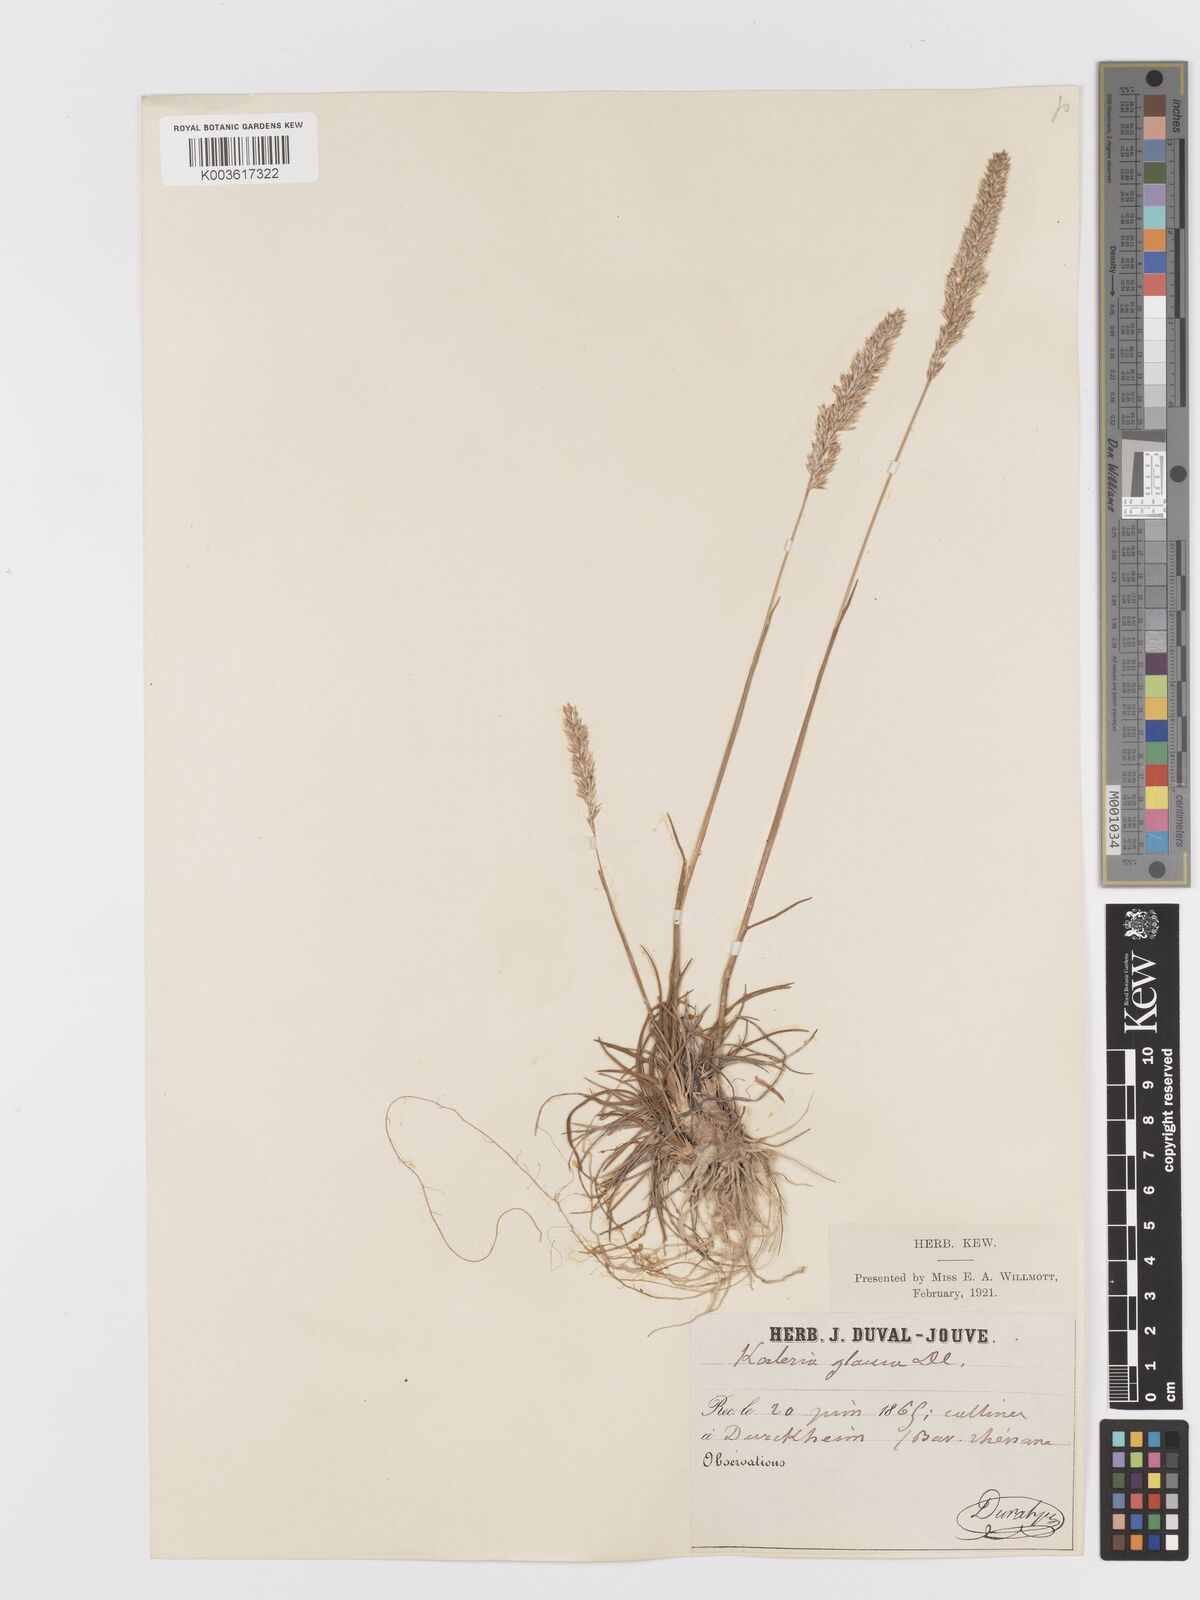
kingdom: Plantae
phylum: Tracheophyta
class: Liliopsida
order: Poales
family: Poaceae
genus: Koeleria
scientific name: Koeleria glauca
